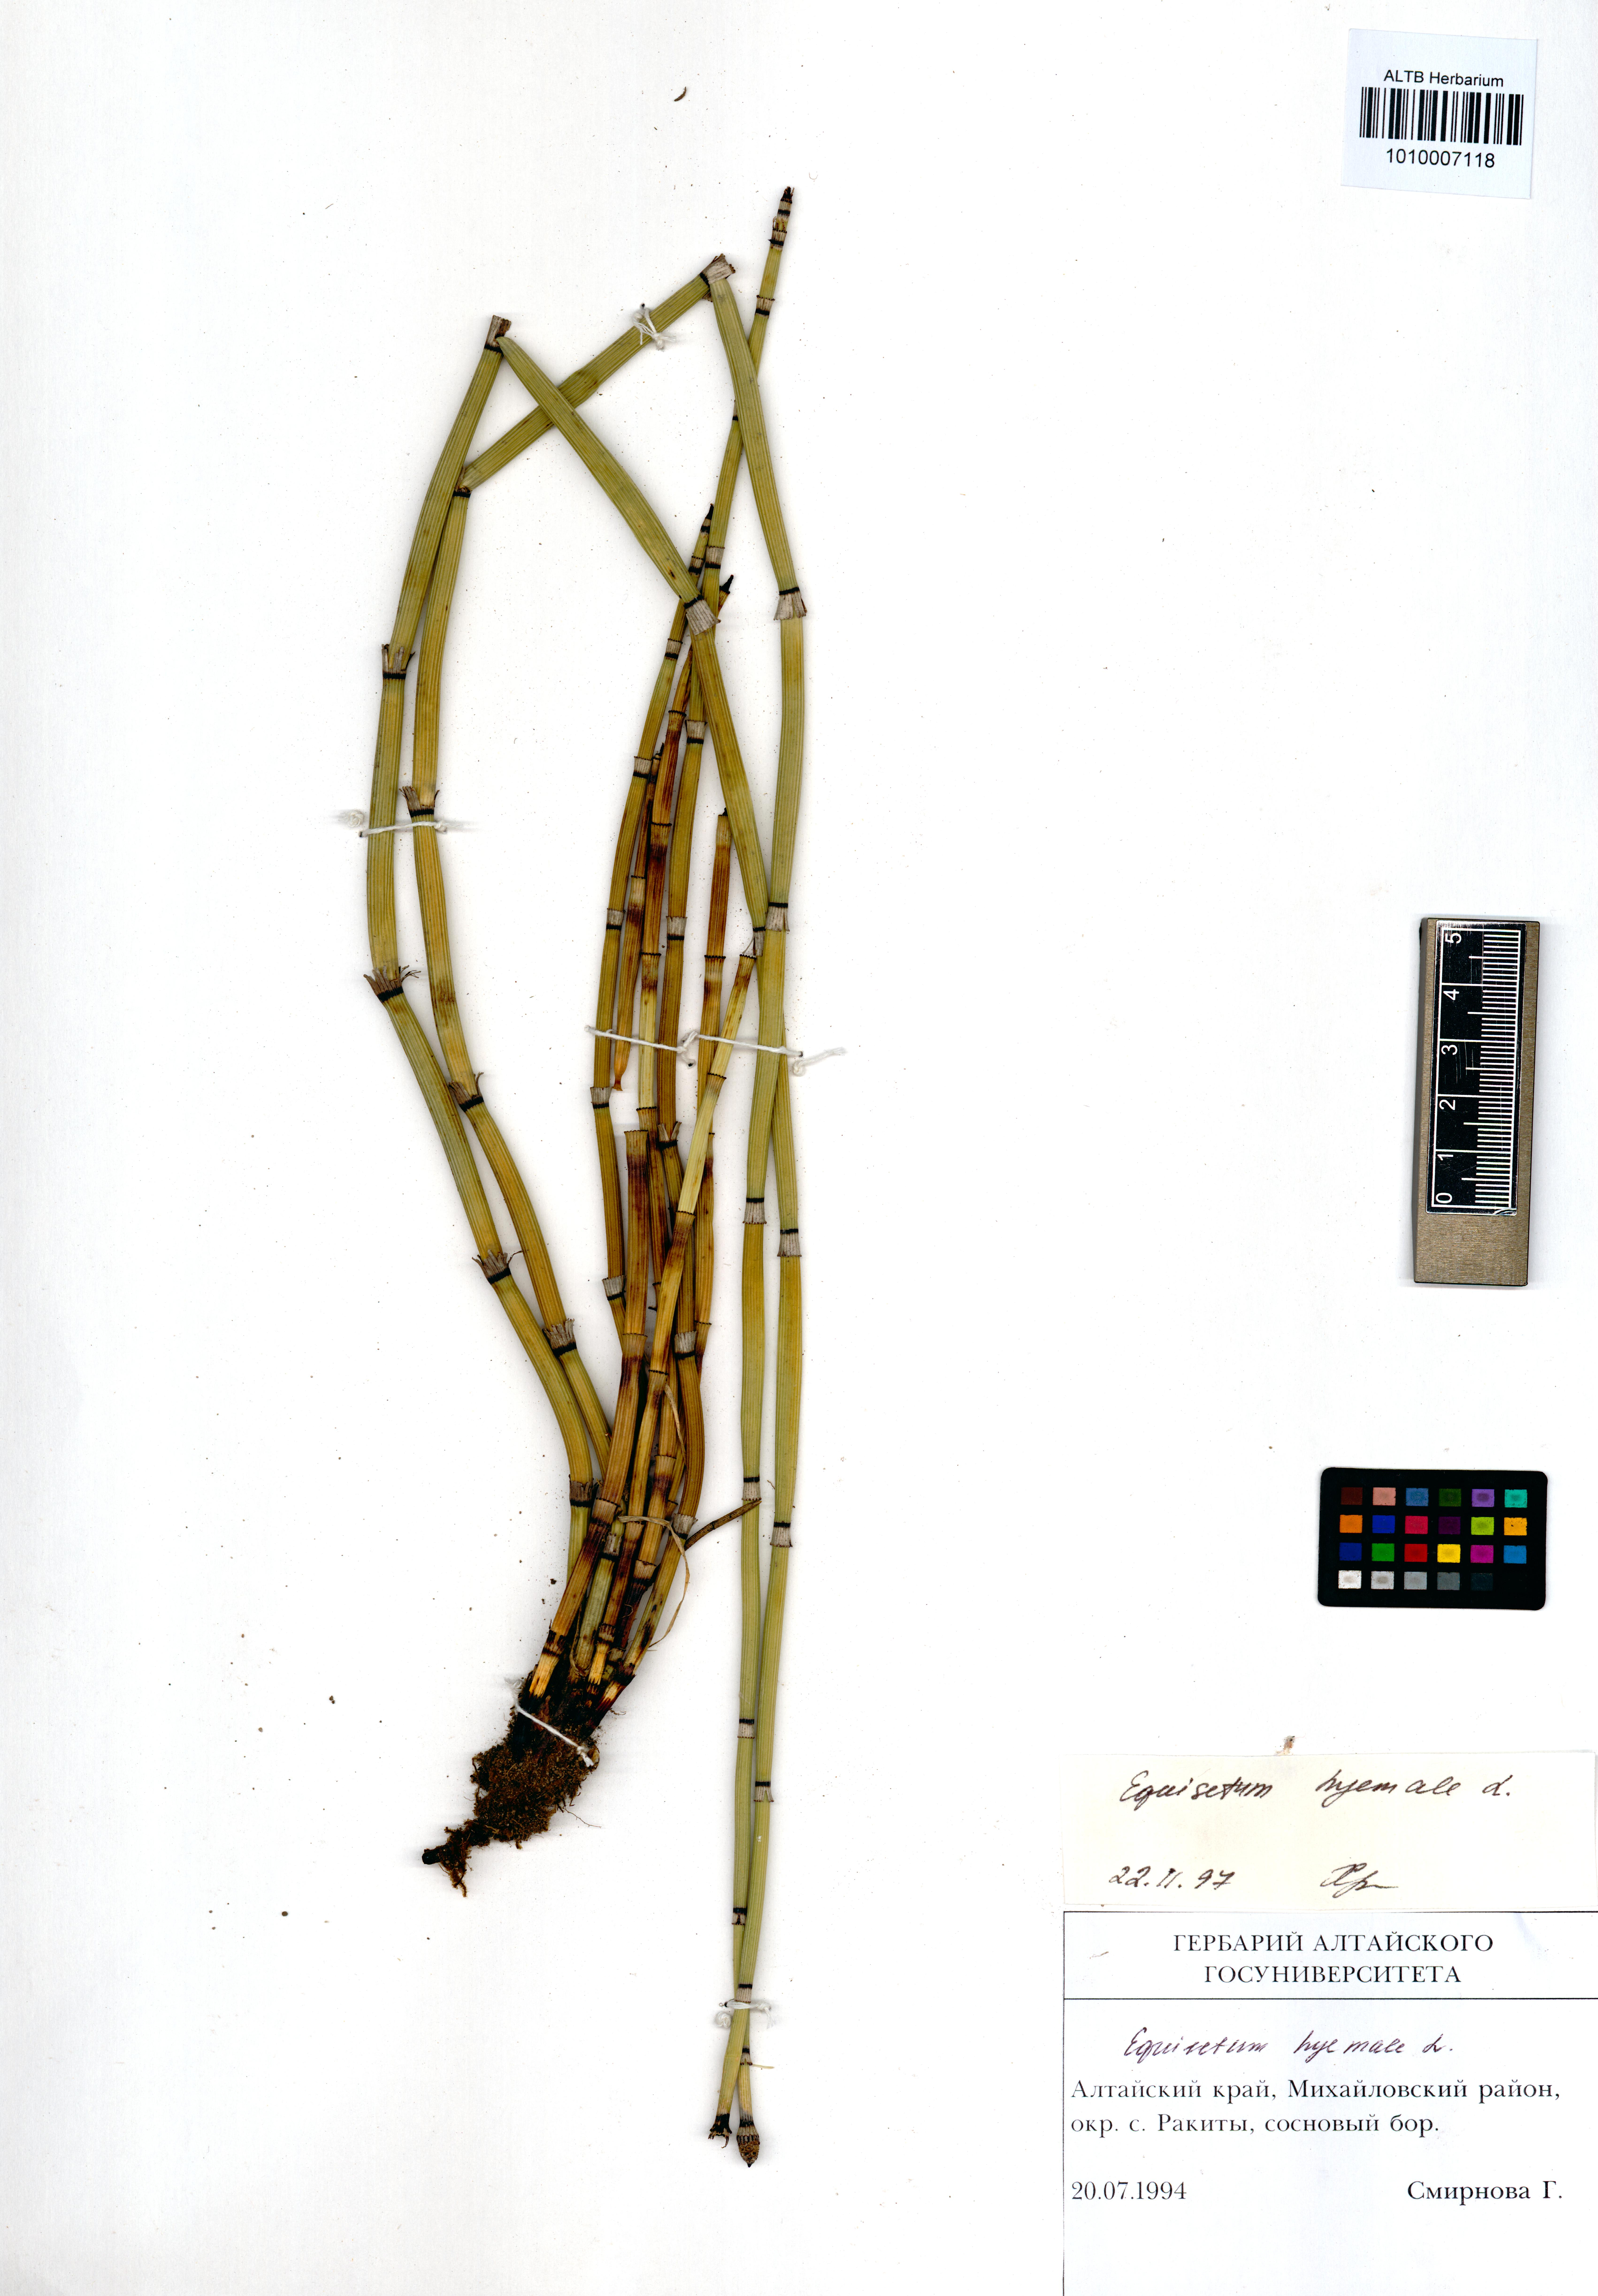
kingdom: Plantae
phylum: Tracheophyta
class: Polypodiopsida
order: Equisetales
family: Equisetaceae
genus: Equisetum
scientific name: Equisetum hyemale
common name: Rough horsetail
